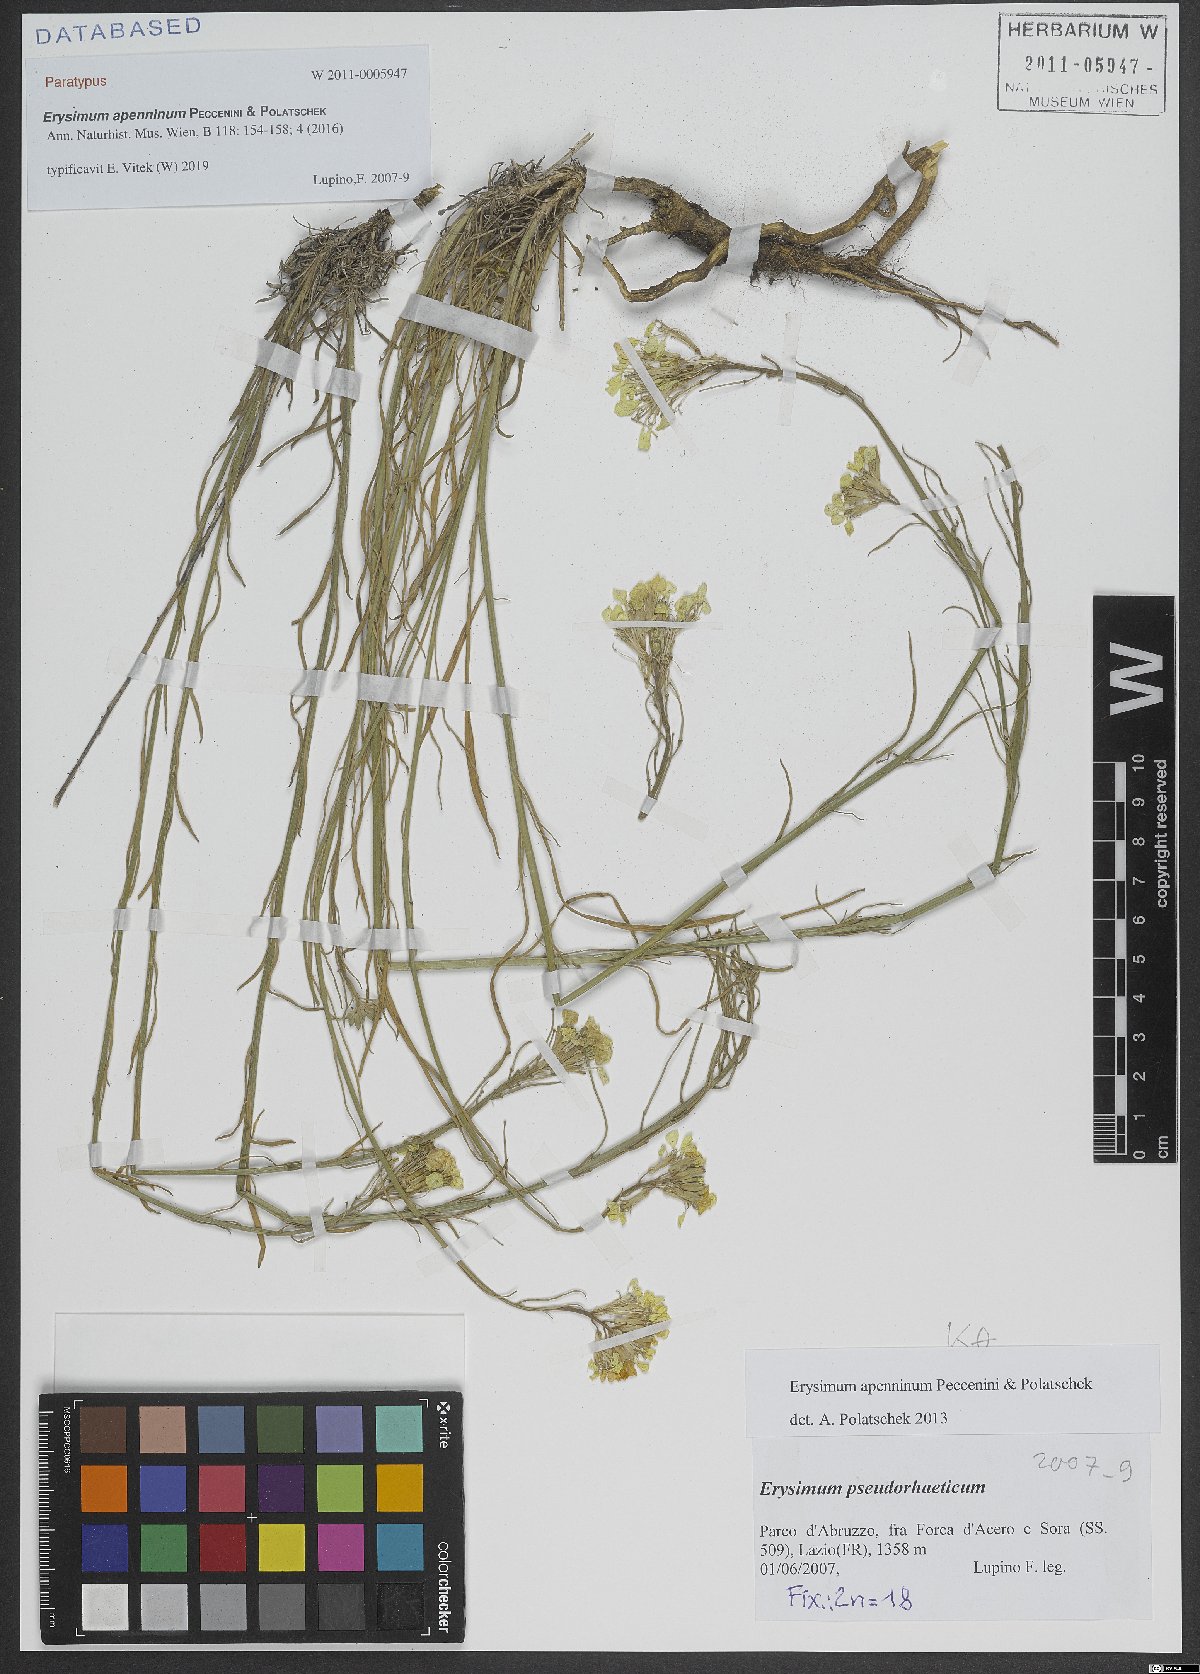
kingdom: Plantae
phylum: Tracheophyta
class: Magnoliopsida
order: Brassicales
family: Brassicaceae
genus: Erysimum
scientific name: Erysimum apenninum
